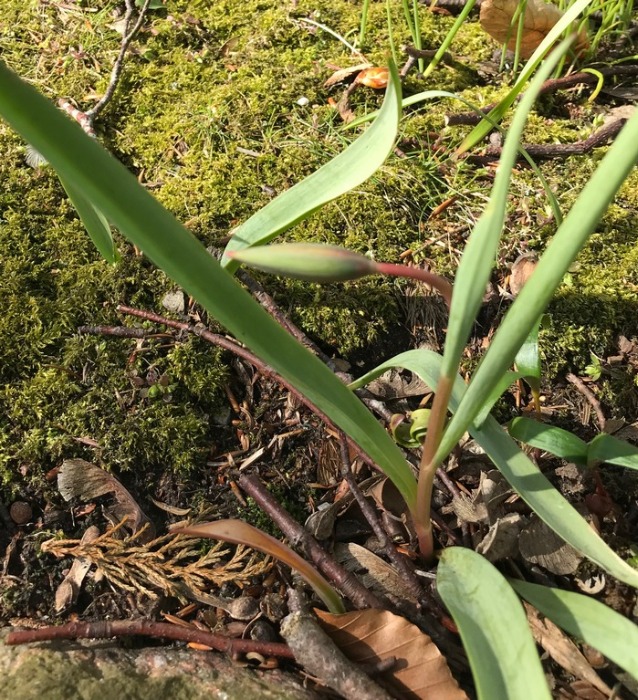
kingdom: Plantae
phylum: Tracheophyta
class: Liliopsida
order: Liliales
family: Liliaceae
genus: Tulipa
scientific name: Tulipa sylvestris
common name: Vild tulipan
